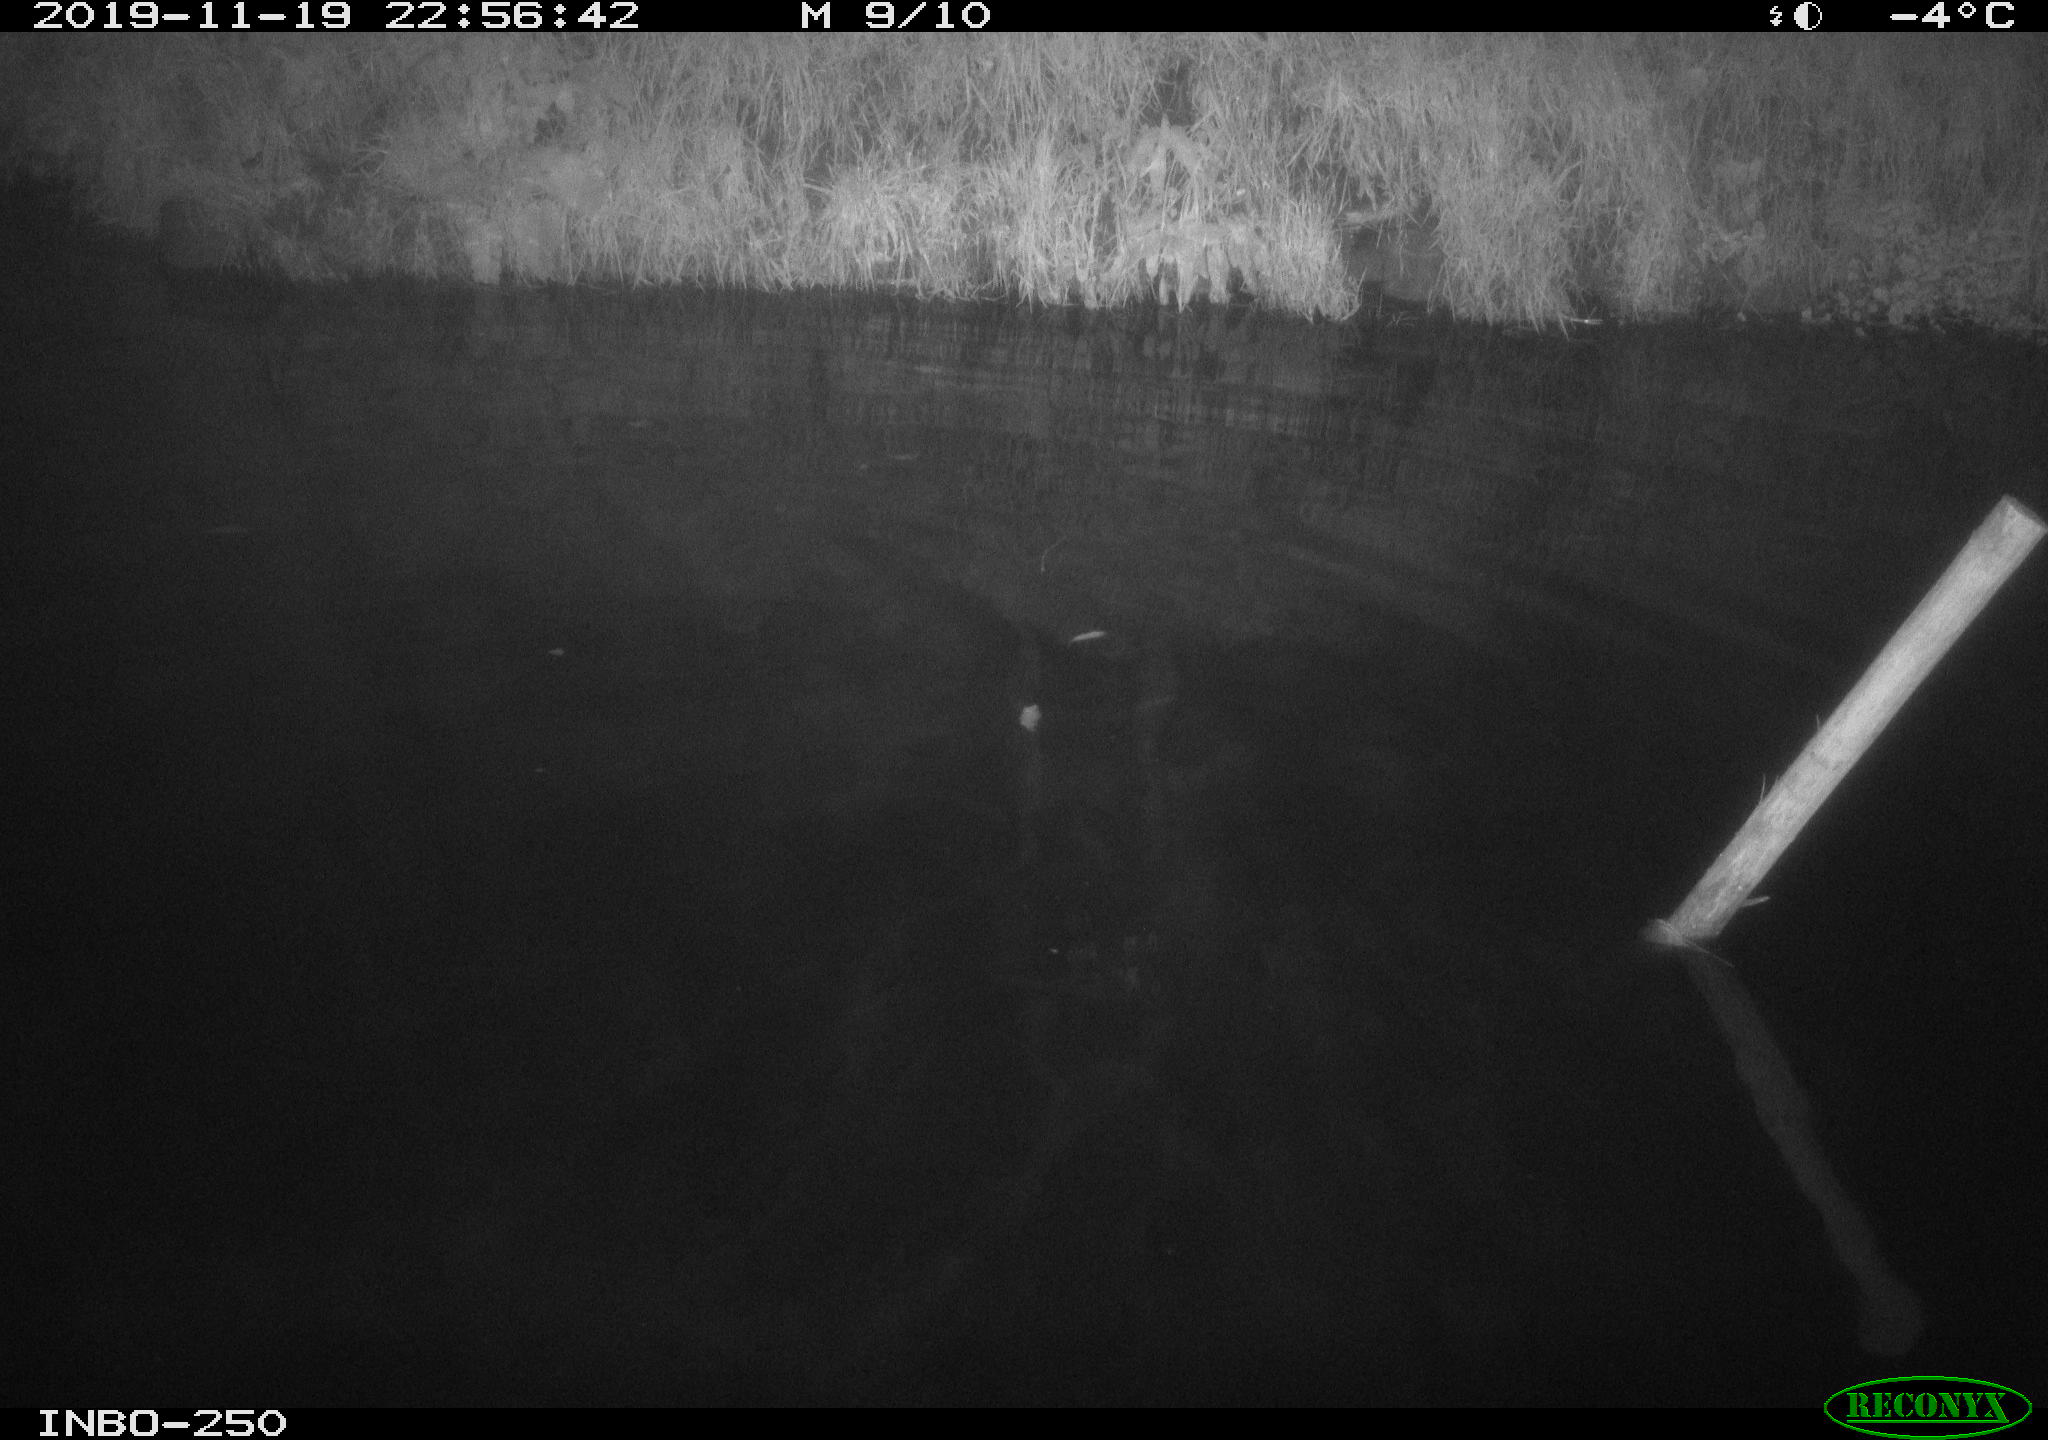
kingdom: Animalia
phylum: Chordata
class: Aves
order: Anseriformes
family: Anatidae
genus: Anas
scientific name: Anas platyrhynchos
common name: Mallard
